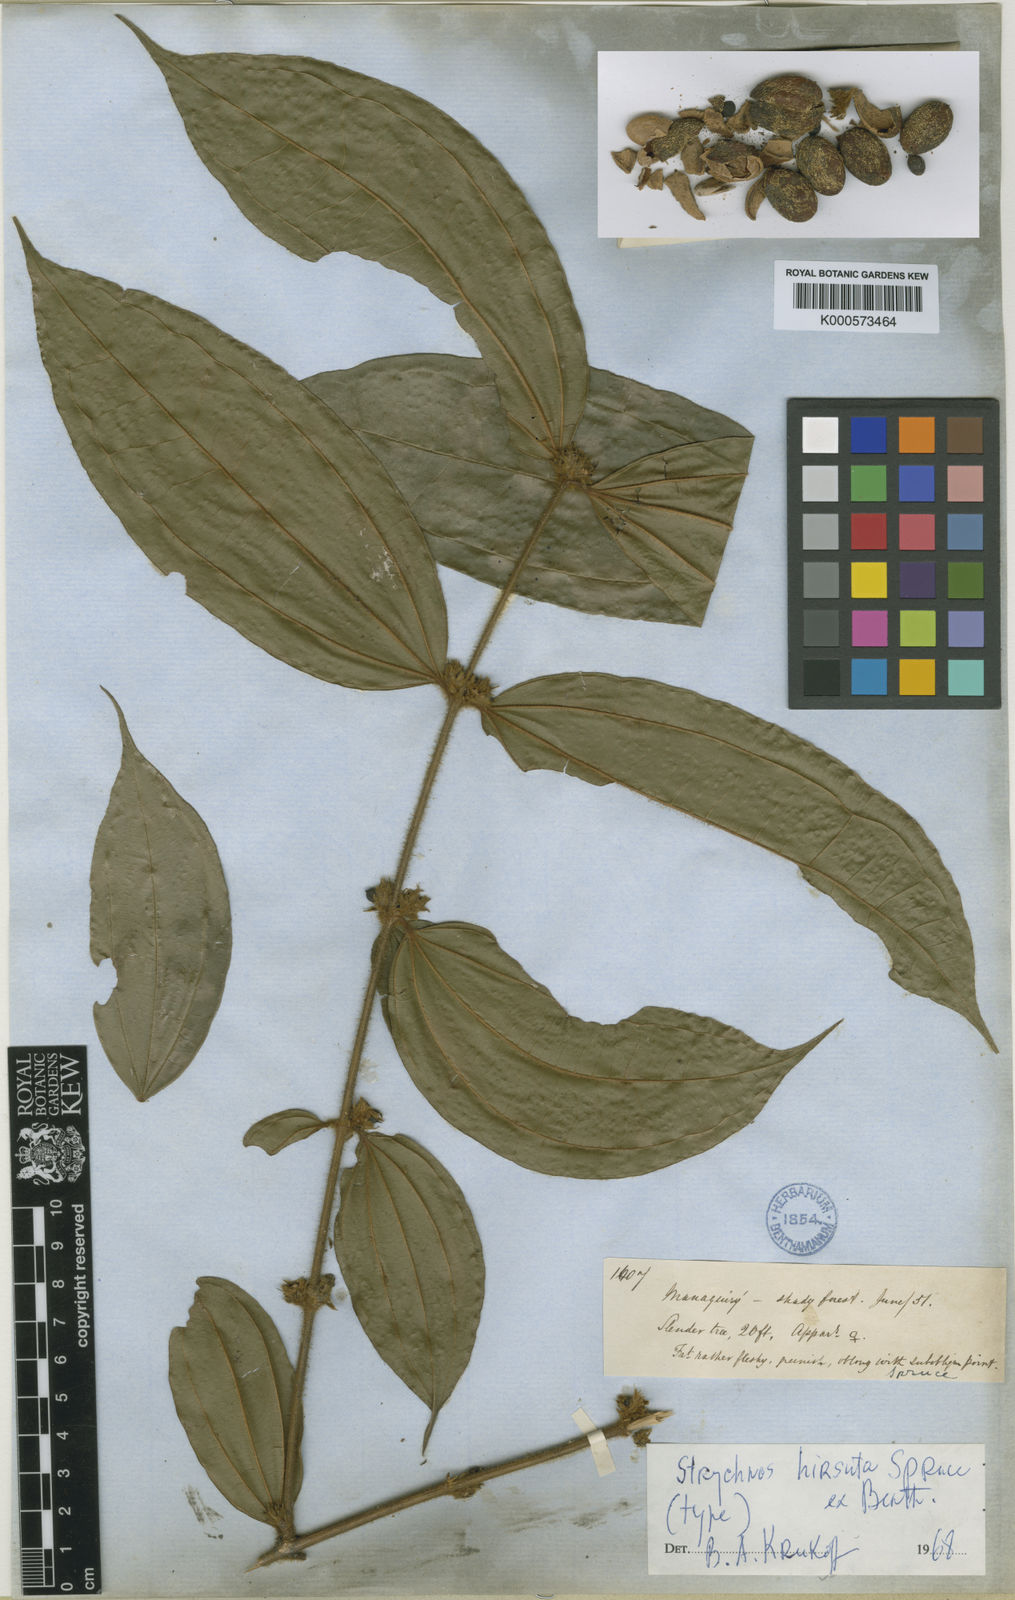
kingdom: Plantae
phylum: Tracheophyta
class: Magnoliopsida
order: Gentianales
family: Loganiaceae
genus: Strychnos
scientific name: Strychnos hirsuta
